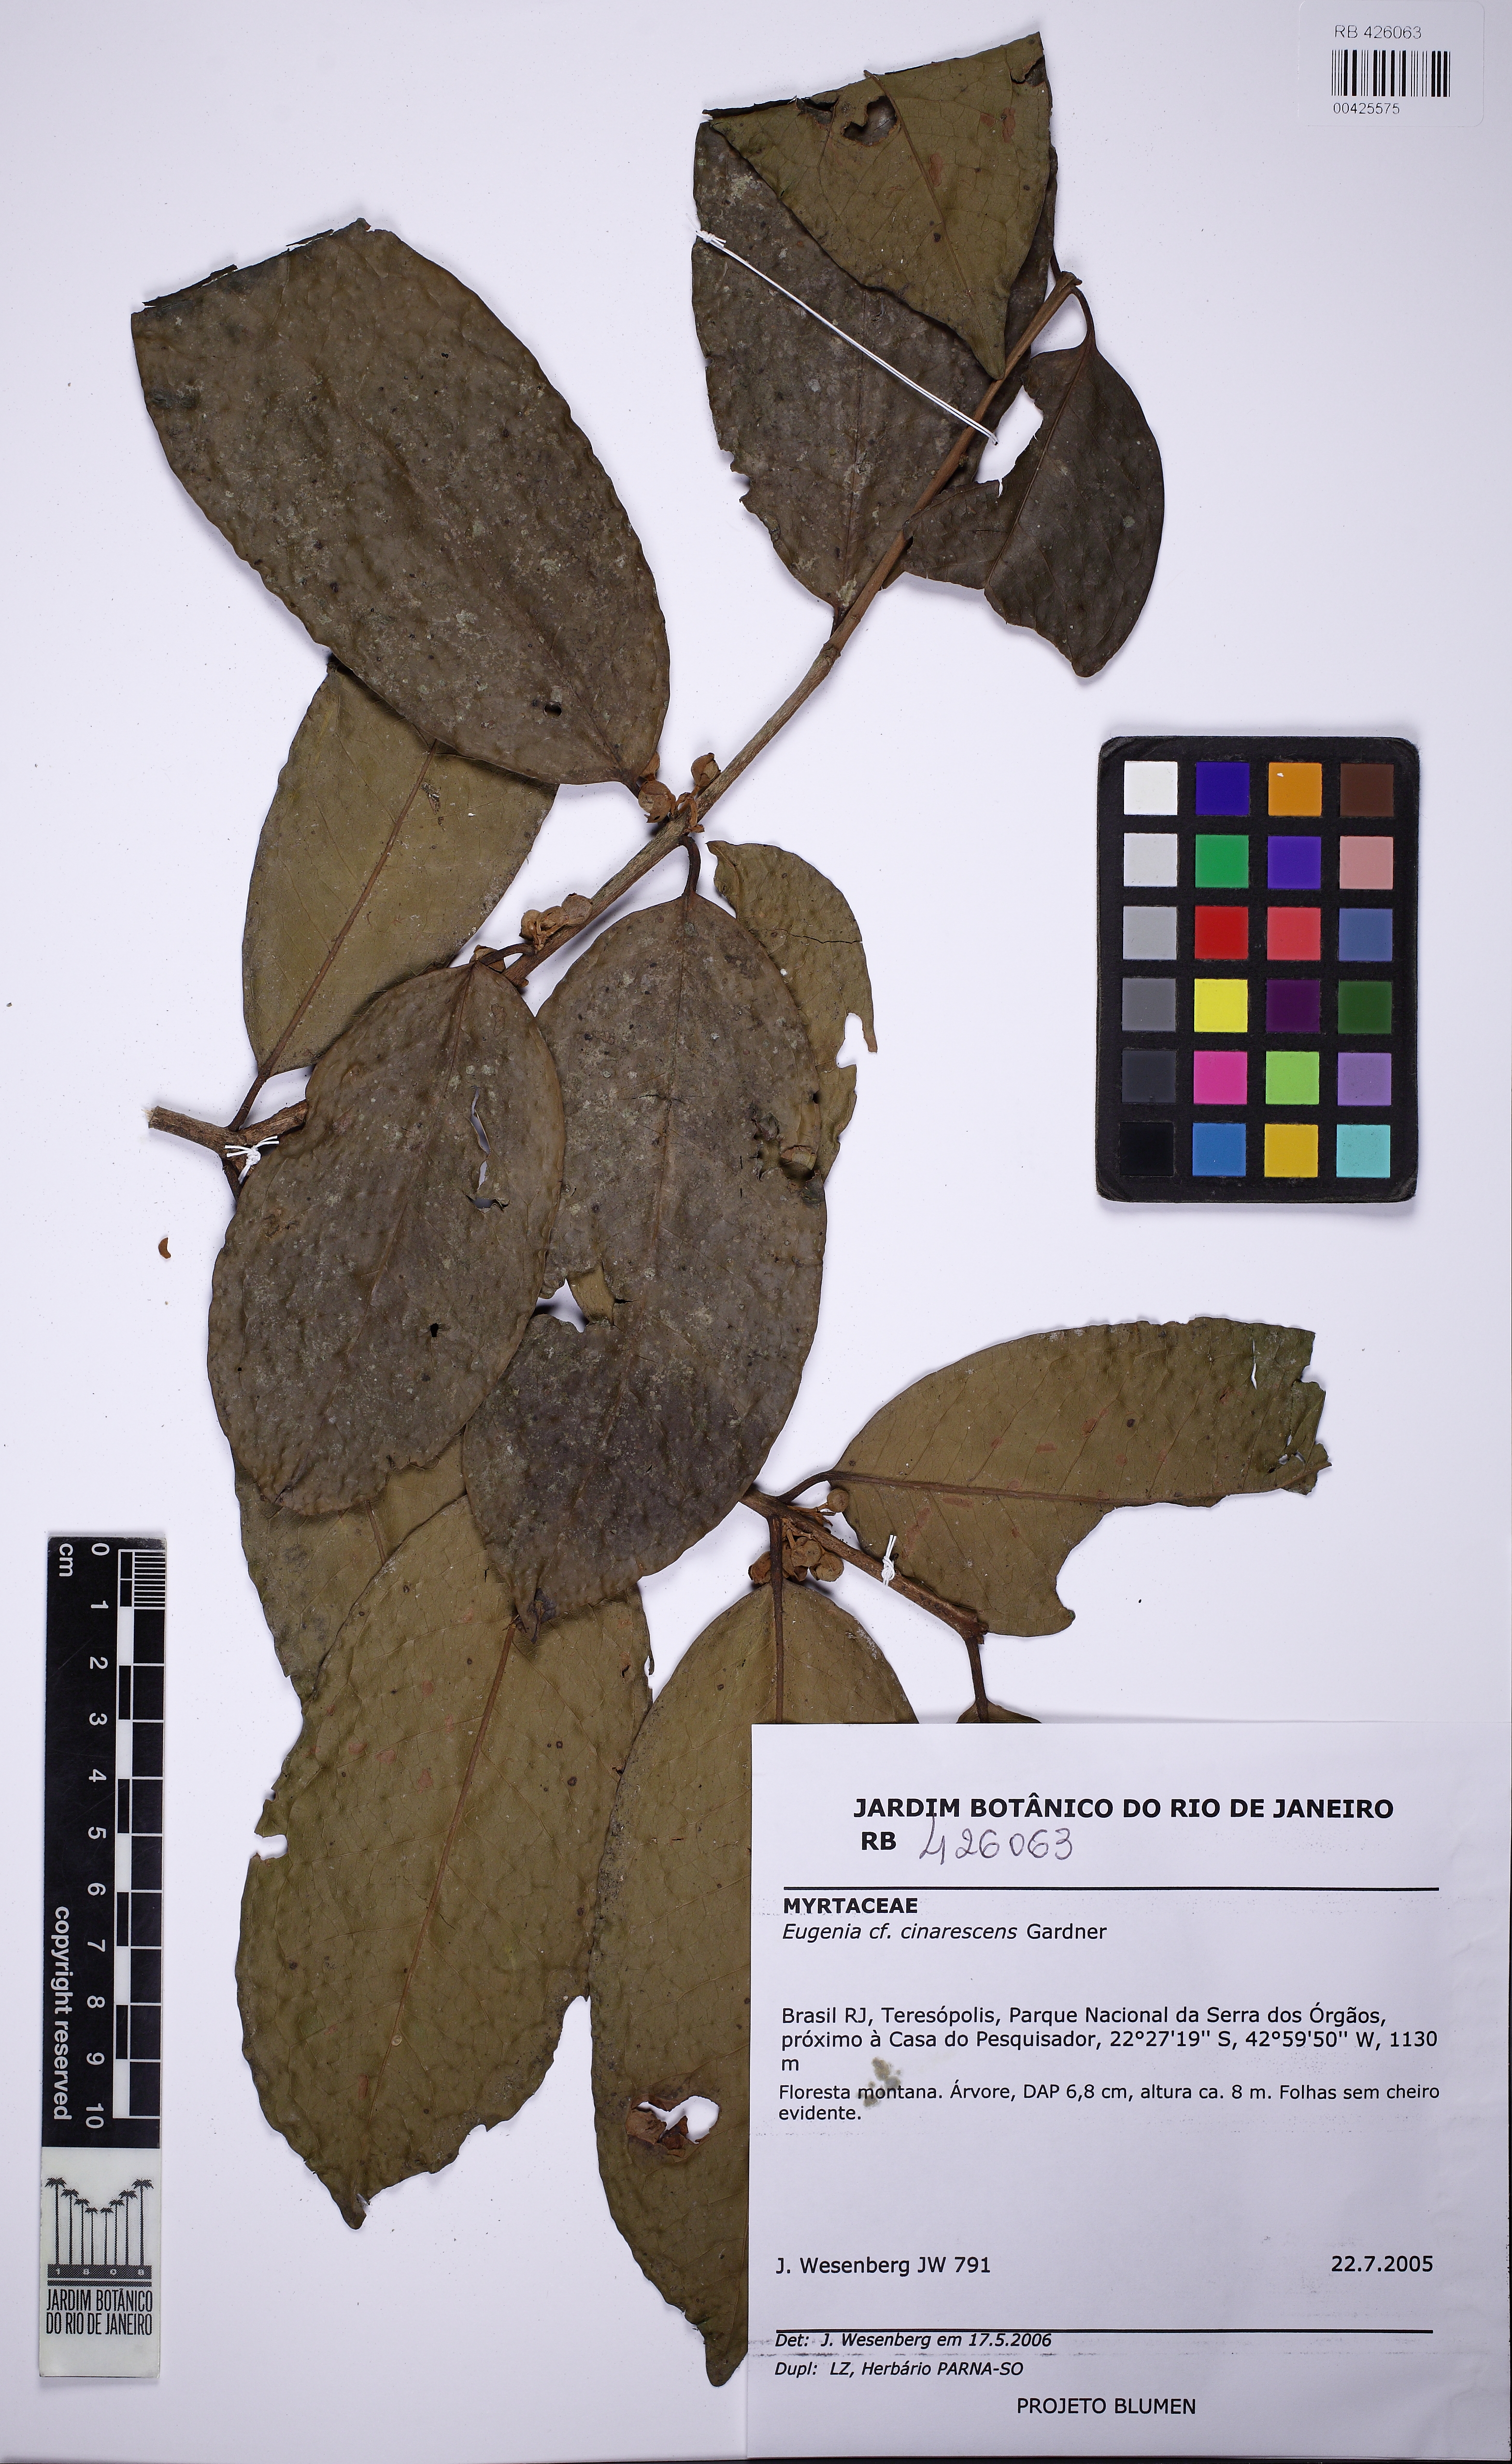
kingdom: Plantae
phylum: Tracheophyta
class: Magnoliopsida
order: Myrtales
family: Myrtaceae
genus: Eugenia
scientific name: Eugenia martinellii
